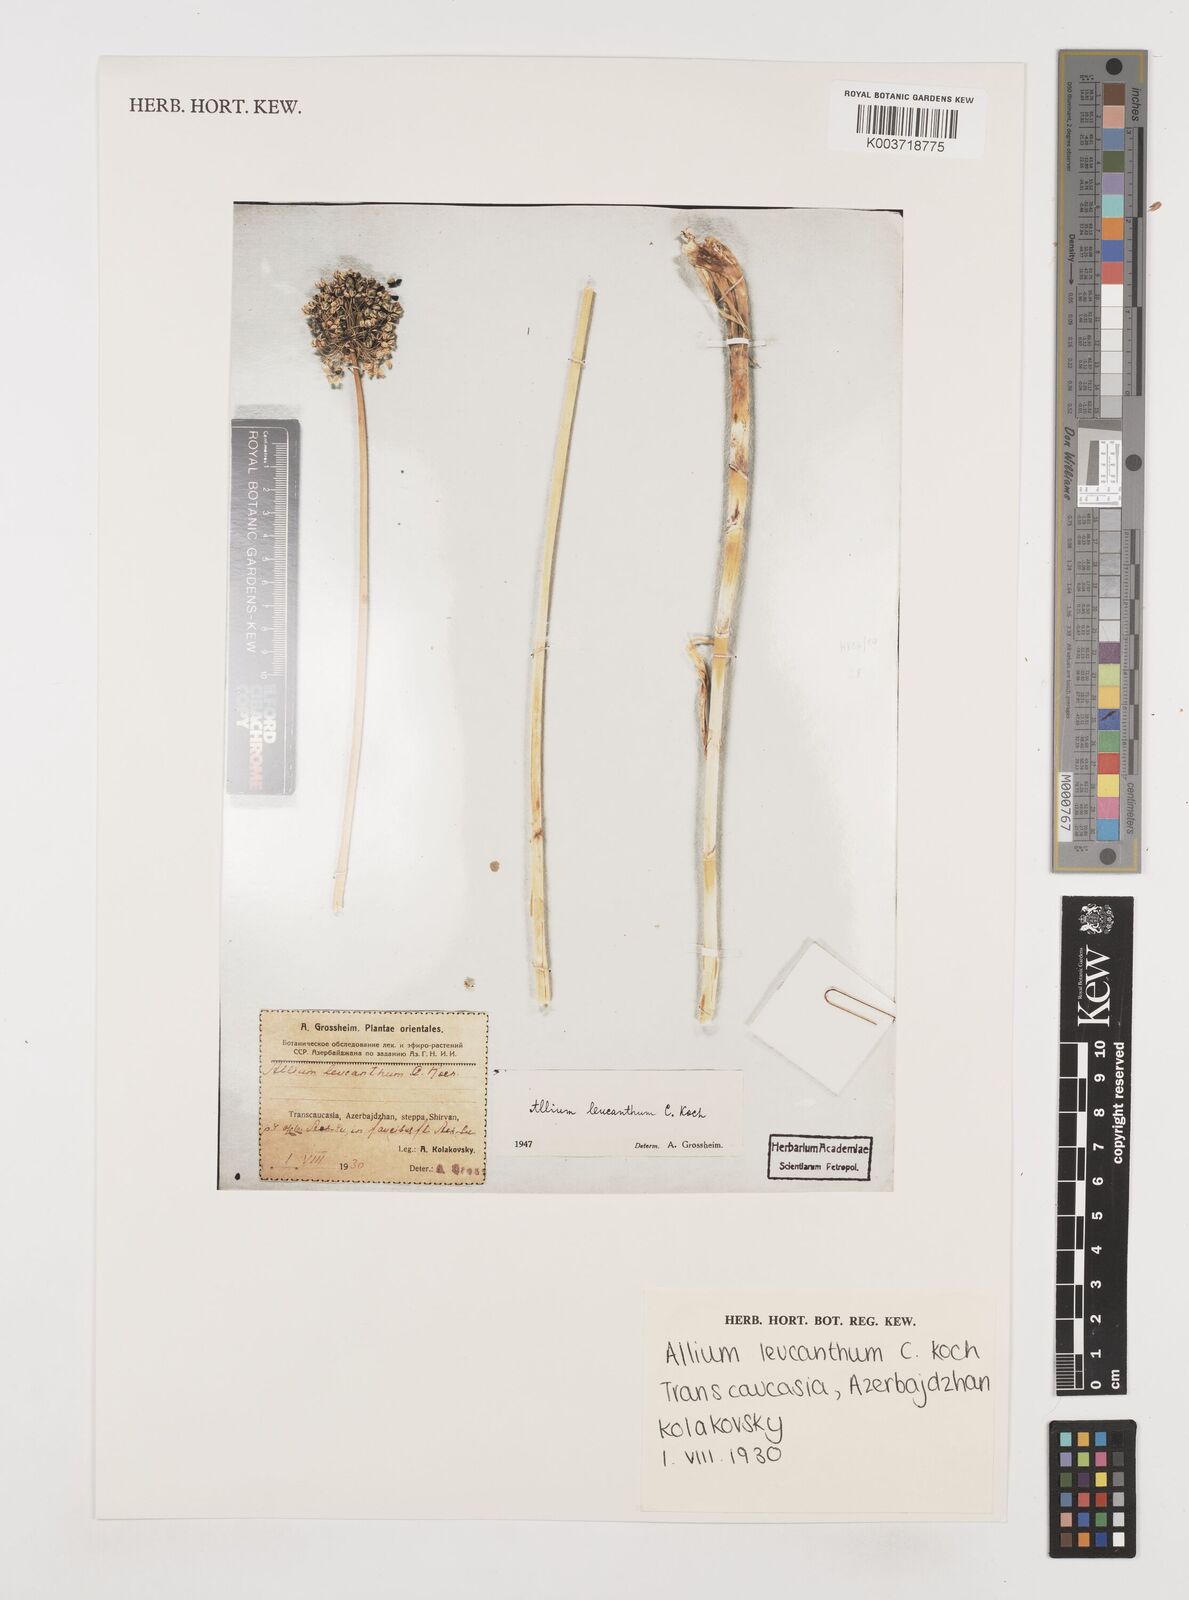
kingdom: Plantae
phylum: Tracheophyta
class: Liliopsida
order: Asparagales
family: Amaryllidaceae
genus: Allium
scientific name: Allium ampeloprasum
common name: Wild leek
